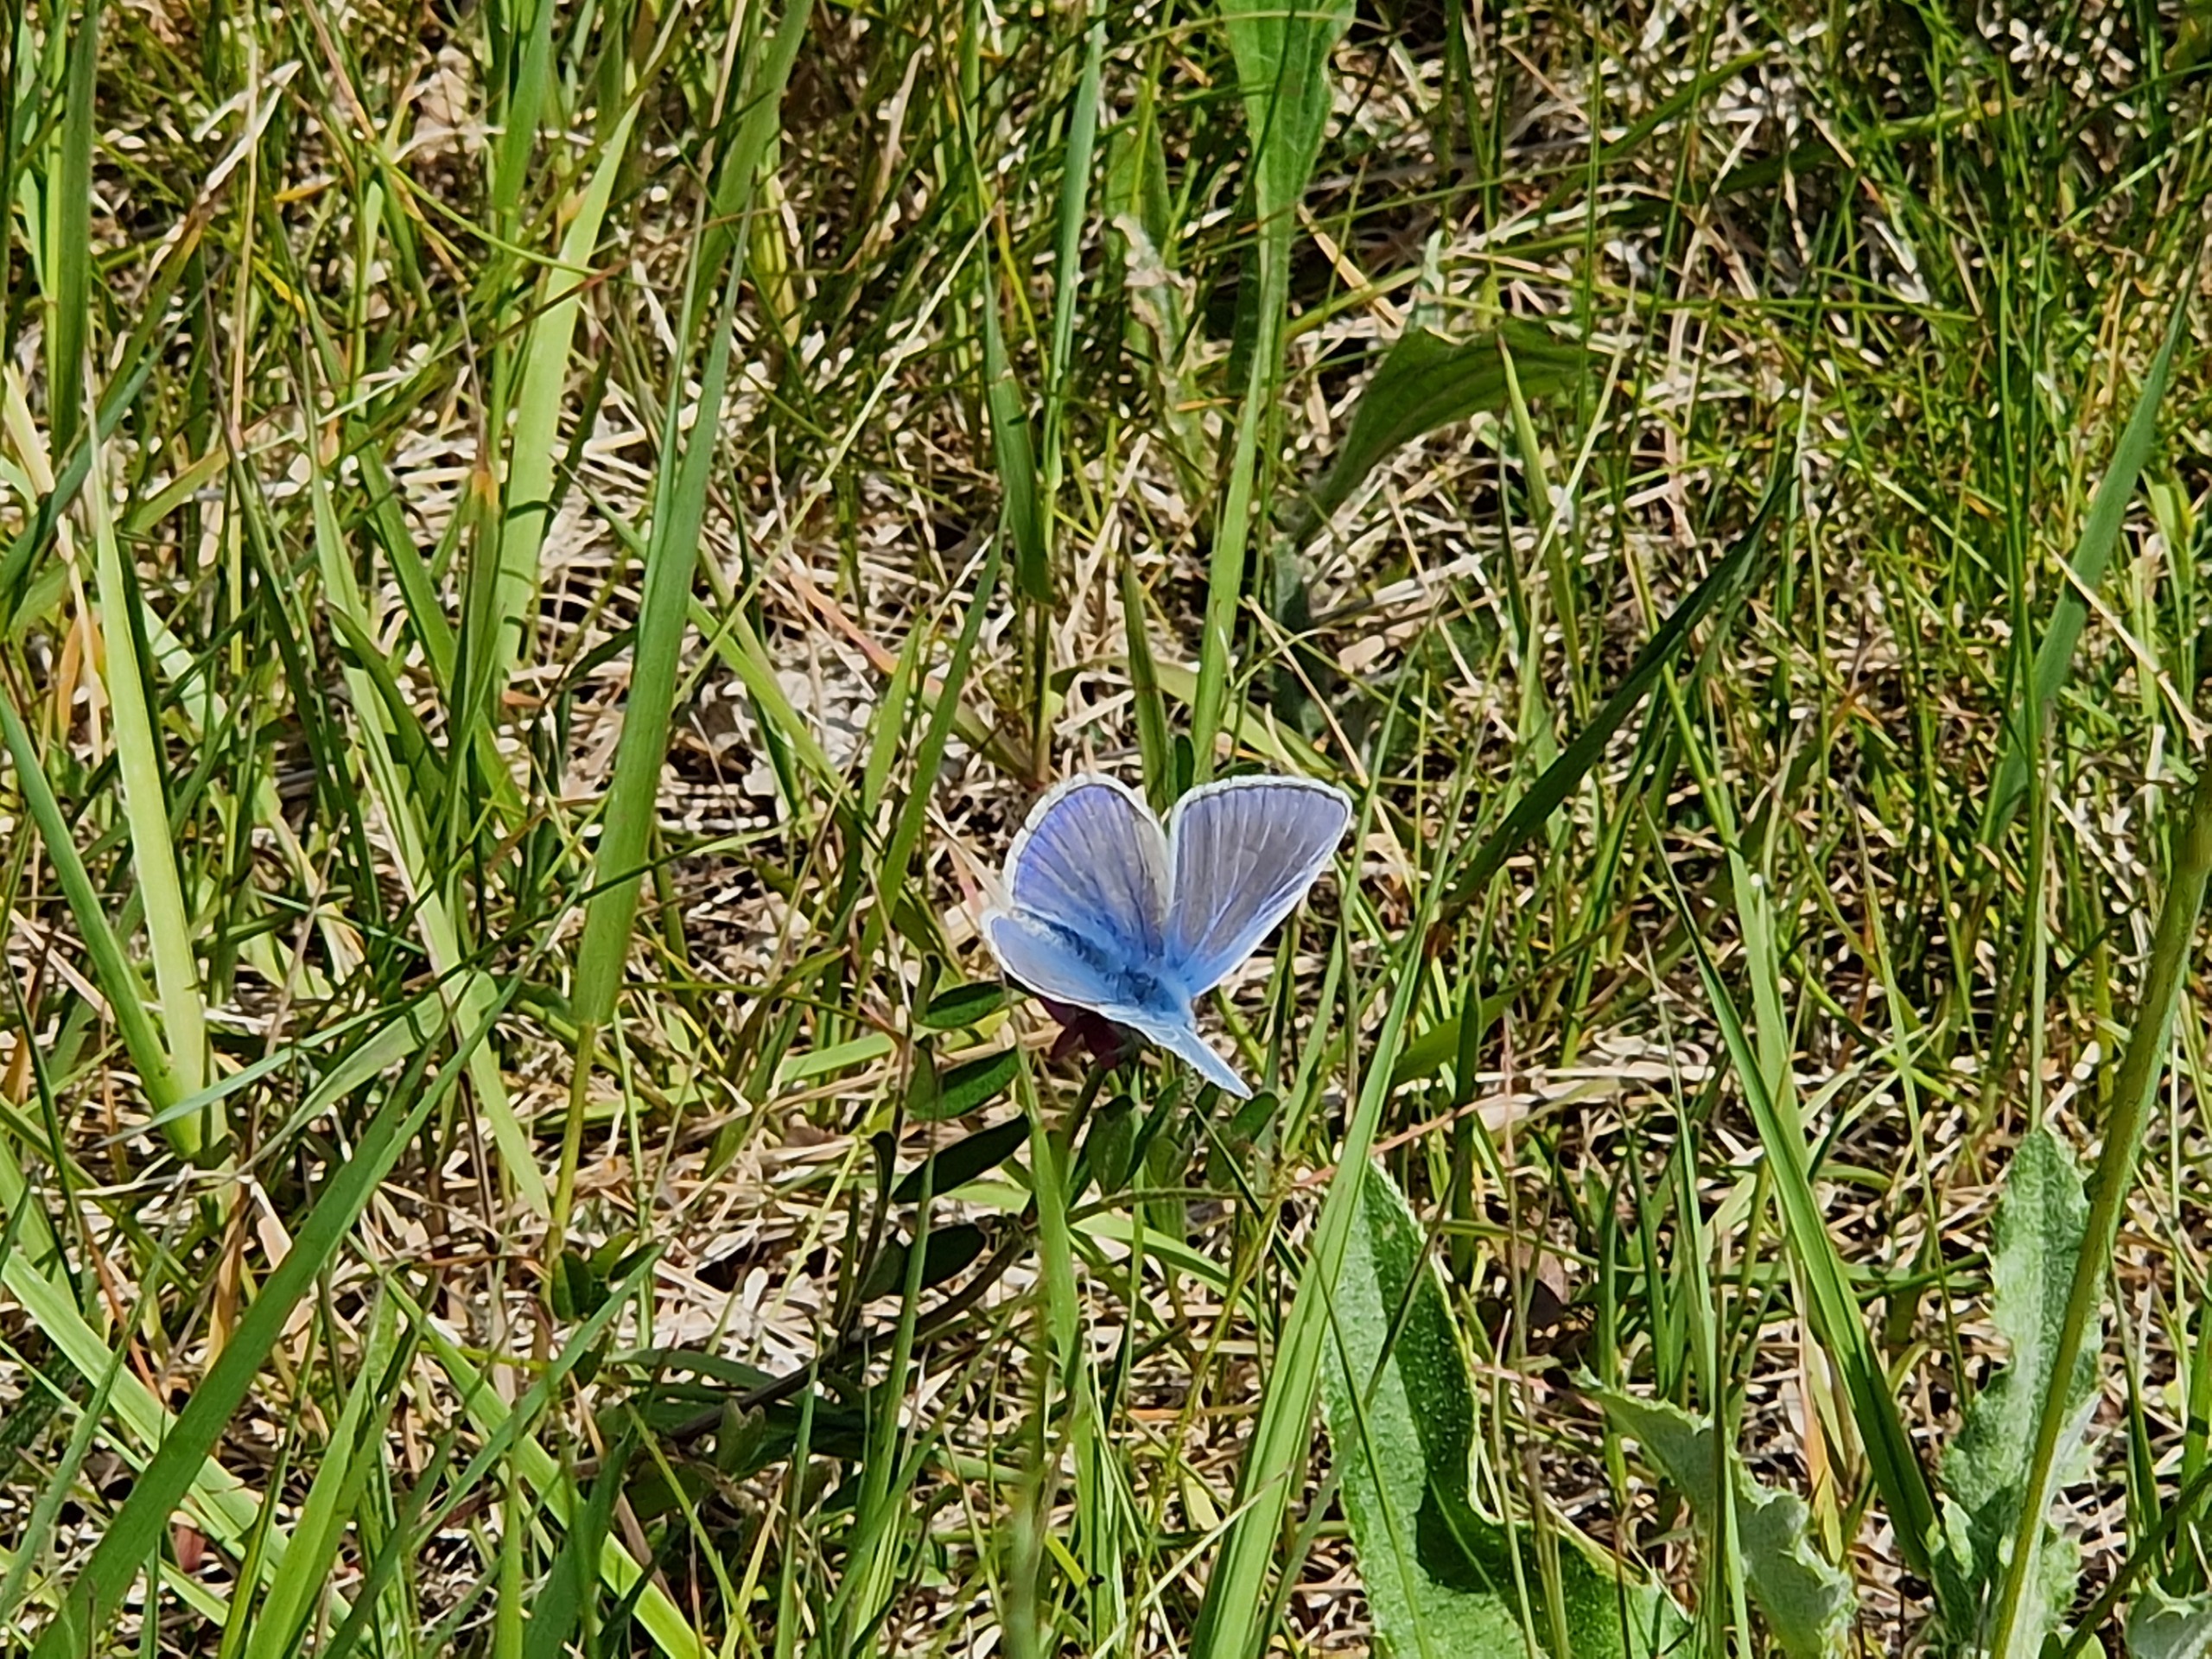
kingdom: Animalia
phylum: Arthropoda
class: Insecta
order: Lepidoptera
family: Lycaenidae
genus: Polyommatus
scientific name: Polyommatus icarus
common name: Almindelig blåfugl
